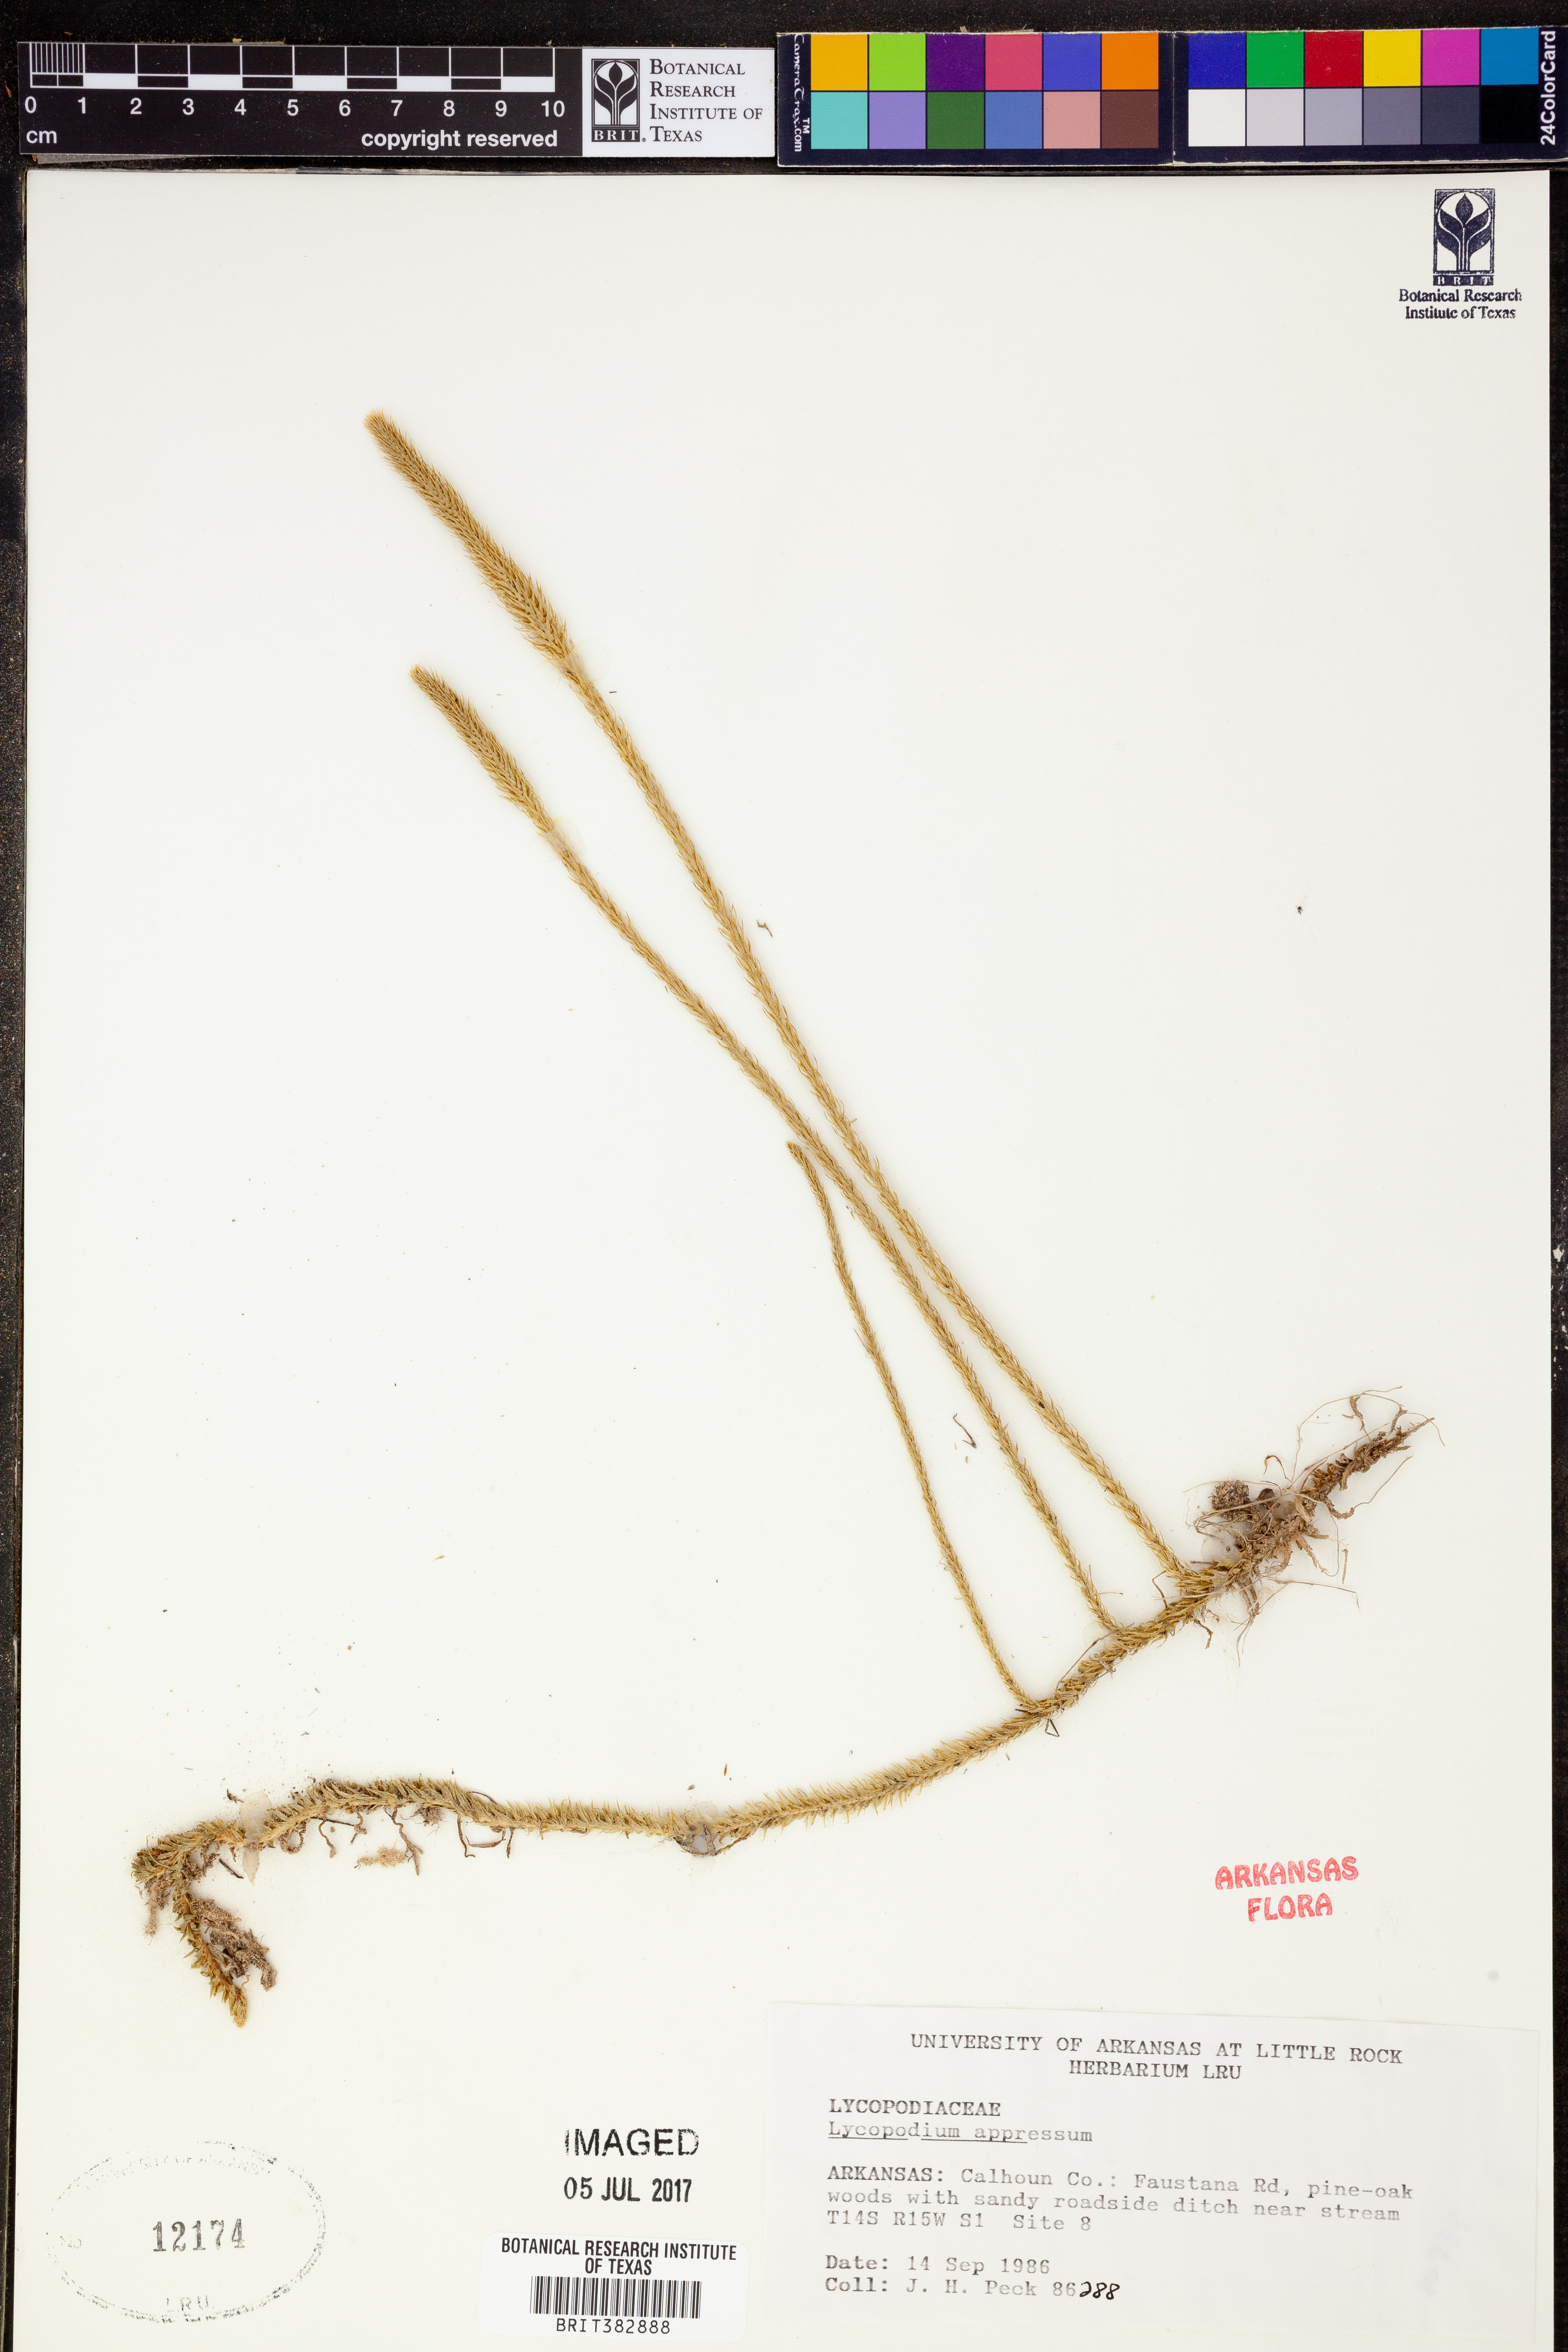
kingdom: Plantae
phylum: Tracheophyta
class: Lycopodiopsida
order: Lycopodiales
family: Lycopodiaceae
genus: Lycopodiella
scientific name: Lycopodiella appressa
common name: Appressed bog clubmoss
